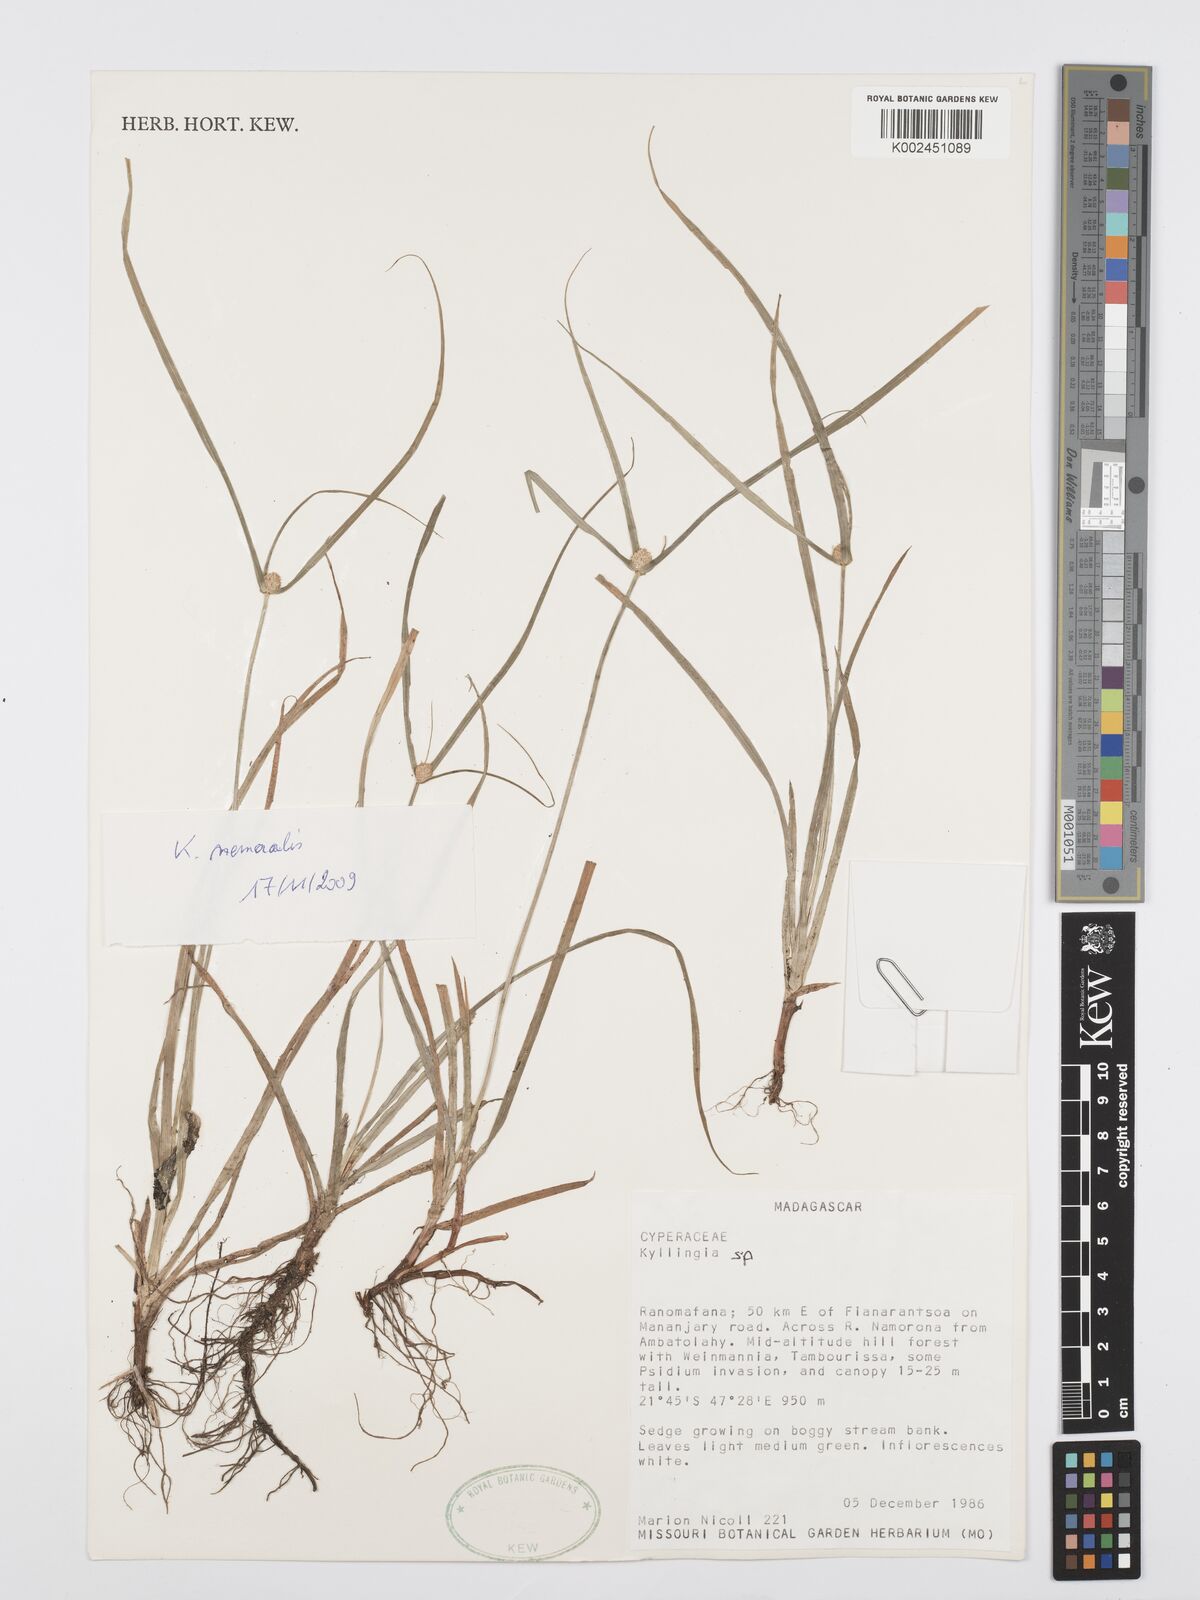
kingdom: Plantae
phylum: Tracheophyta
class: Liliopsida
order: Poales
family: Cyperaceae
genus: Cyperus
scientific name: Cyperus nemoralis
